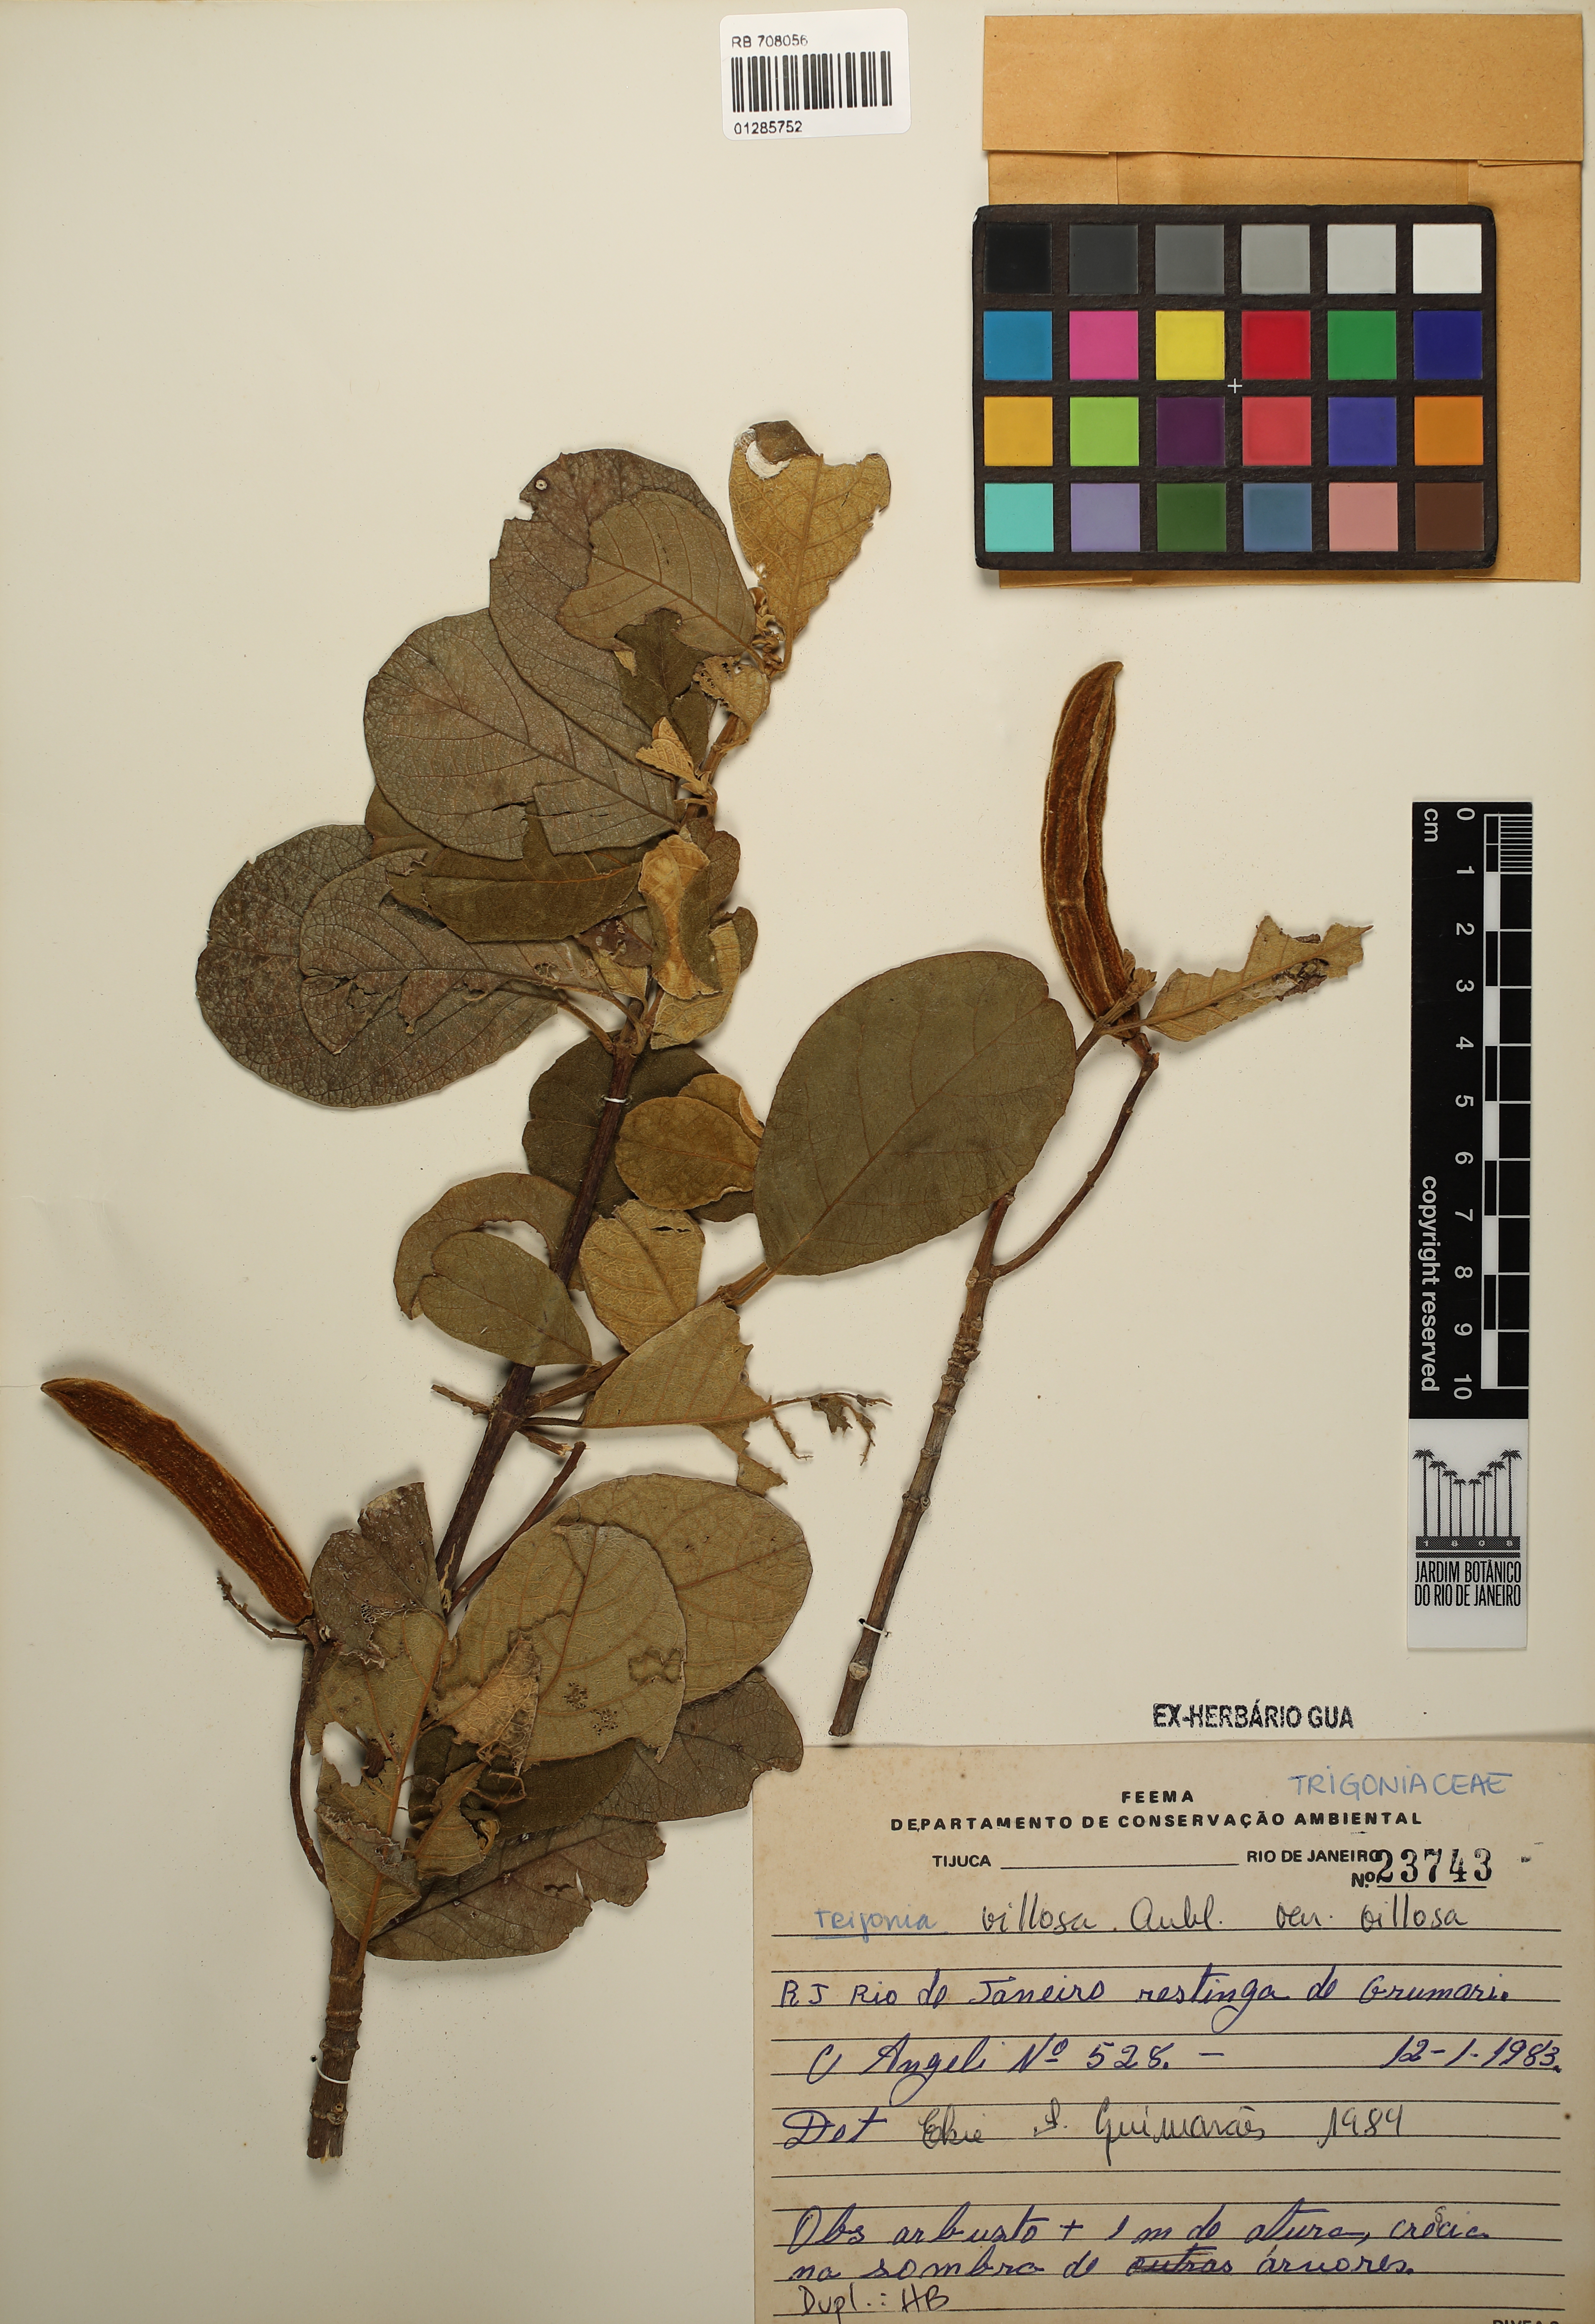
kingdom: Plantae
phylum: Tracheophyta
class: Magnoliopsida
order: Malpighiales
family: Trigoniaceae
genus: Trigonia
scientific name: Trigonia villosa
